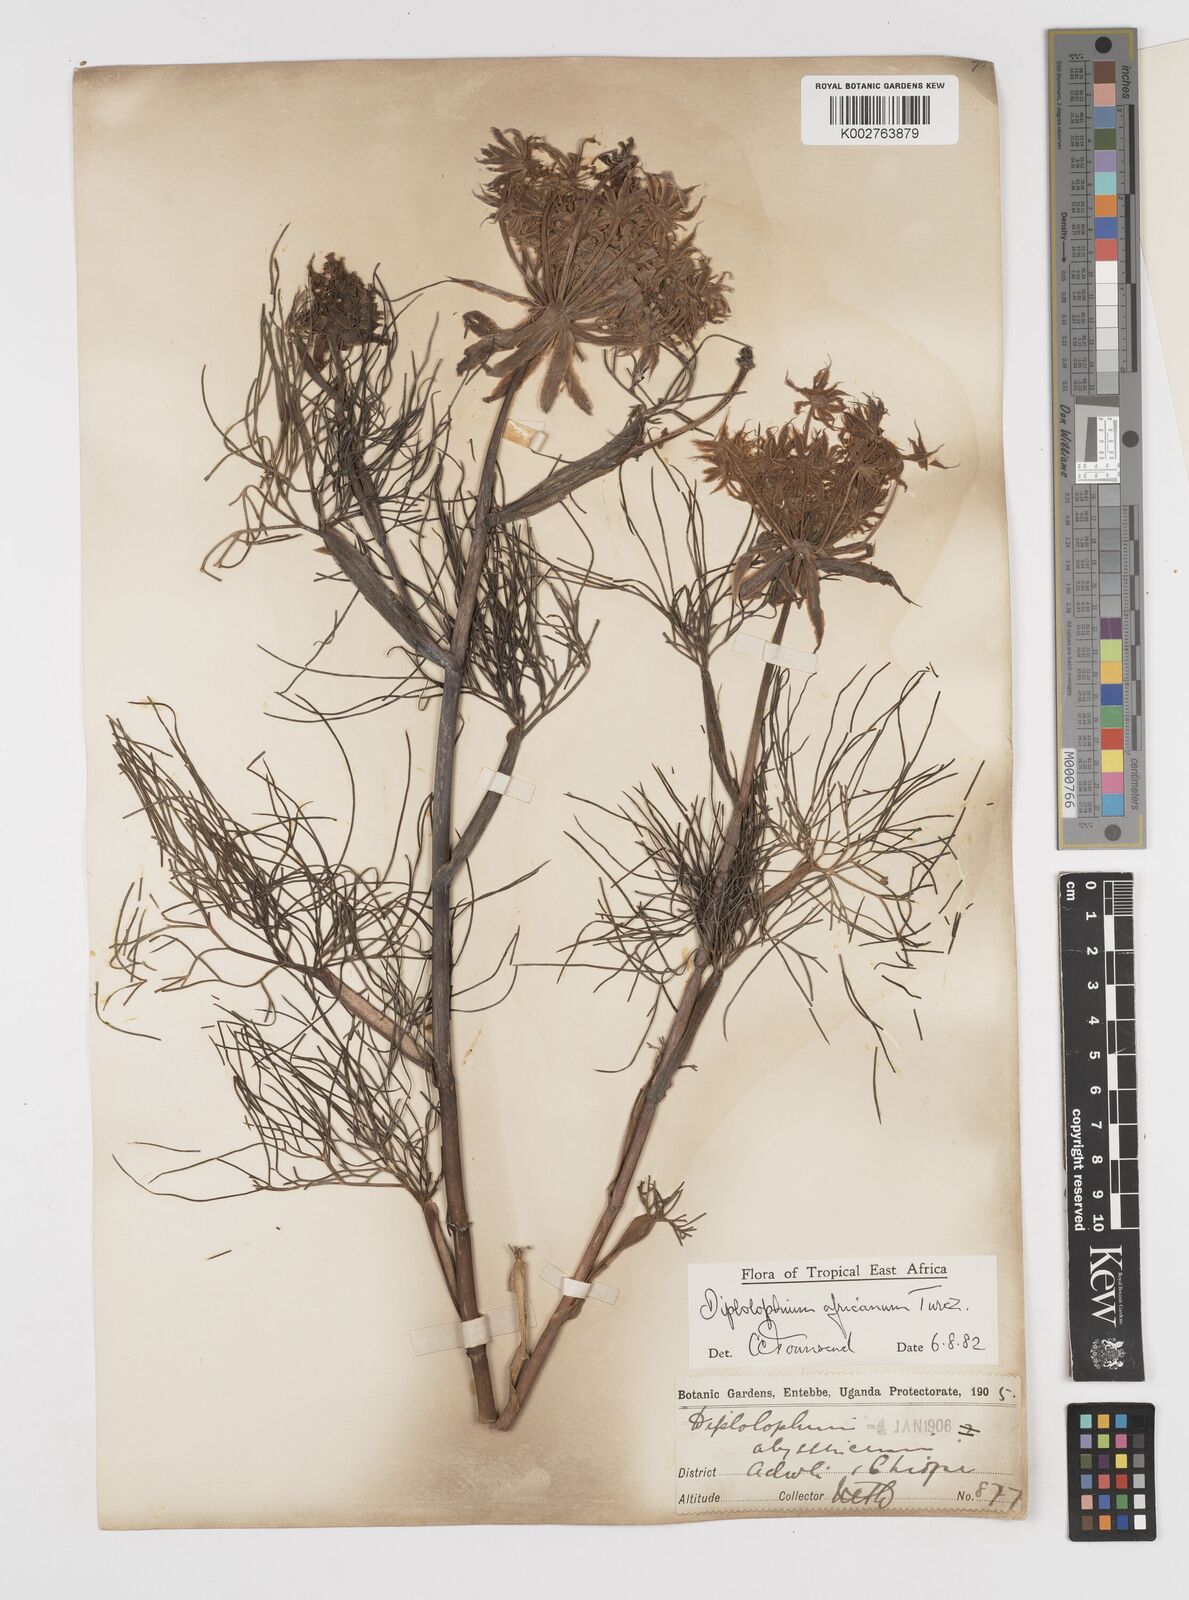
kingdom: Plantae
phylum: Tracheophyta
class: Magnoliopsida
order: Apiales
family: Apiaceae
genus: Diplolophium
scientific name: Diplolophium africanum
